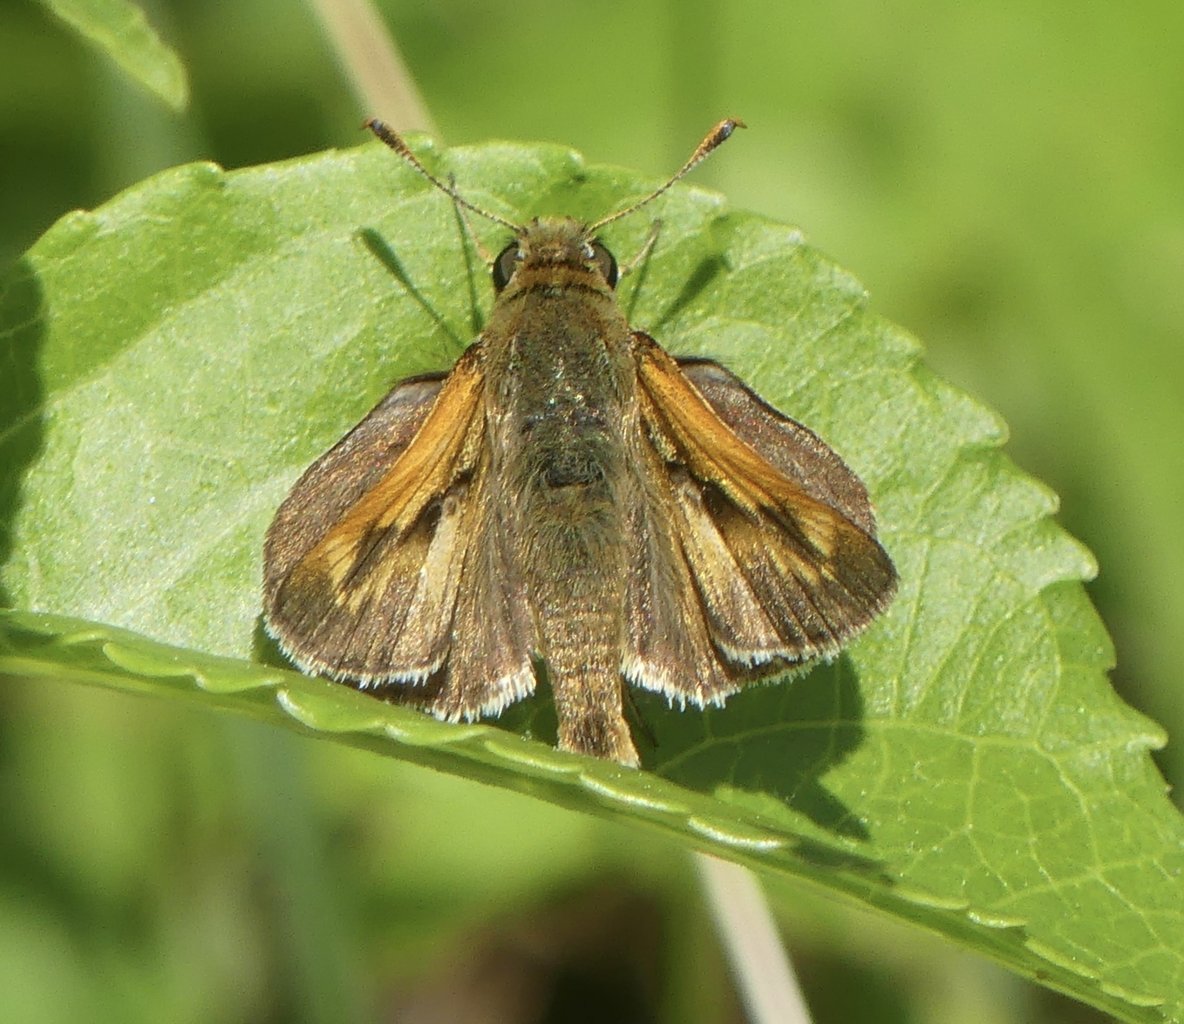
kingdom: Animalia
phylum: Arthropoda
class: Insecta
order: Lepidoptera
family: Hesperiidae
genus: Polites
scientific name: Polites
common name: Long Dash Skipper
